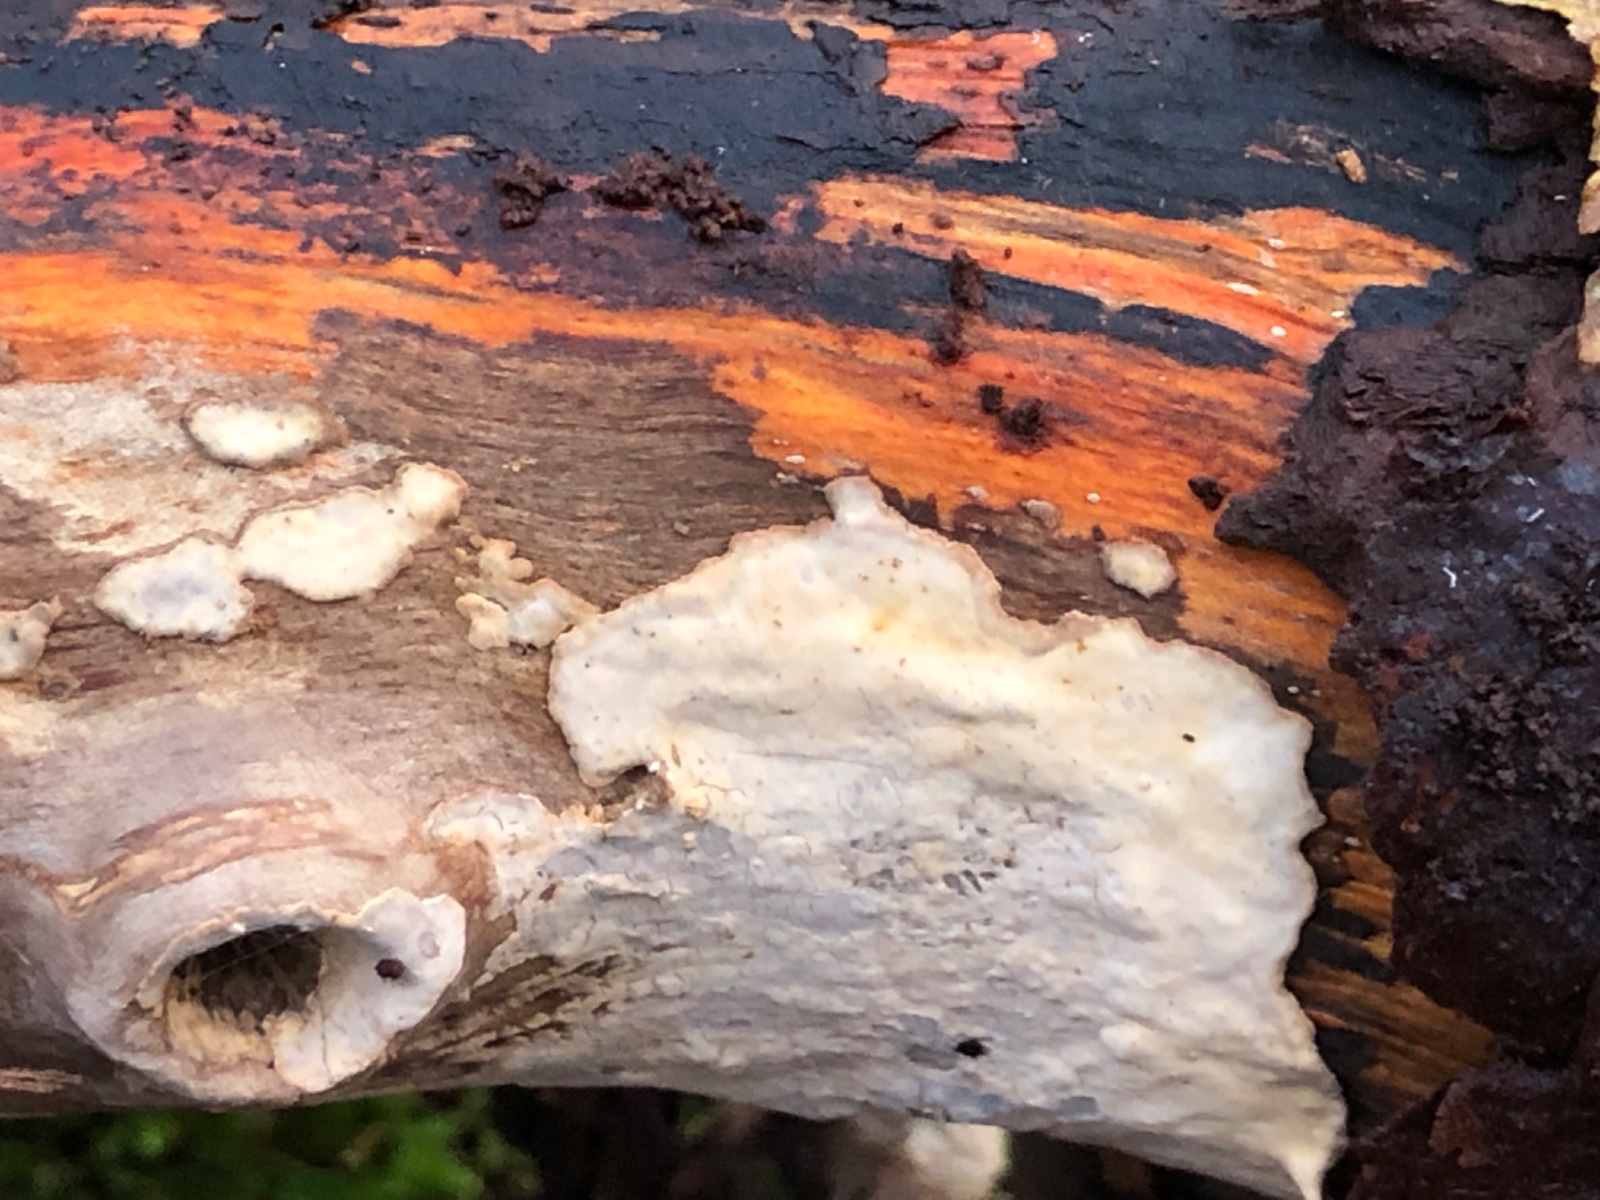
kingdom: Fungi
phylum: Basidiomycota
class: Agaricomycetes
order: Russulales
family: Stereaceae
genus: Stereum
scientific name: Stereum rugosum
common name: rynket lædersvamp
